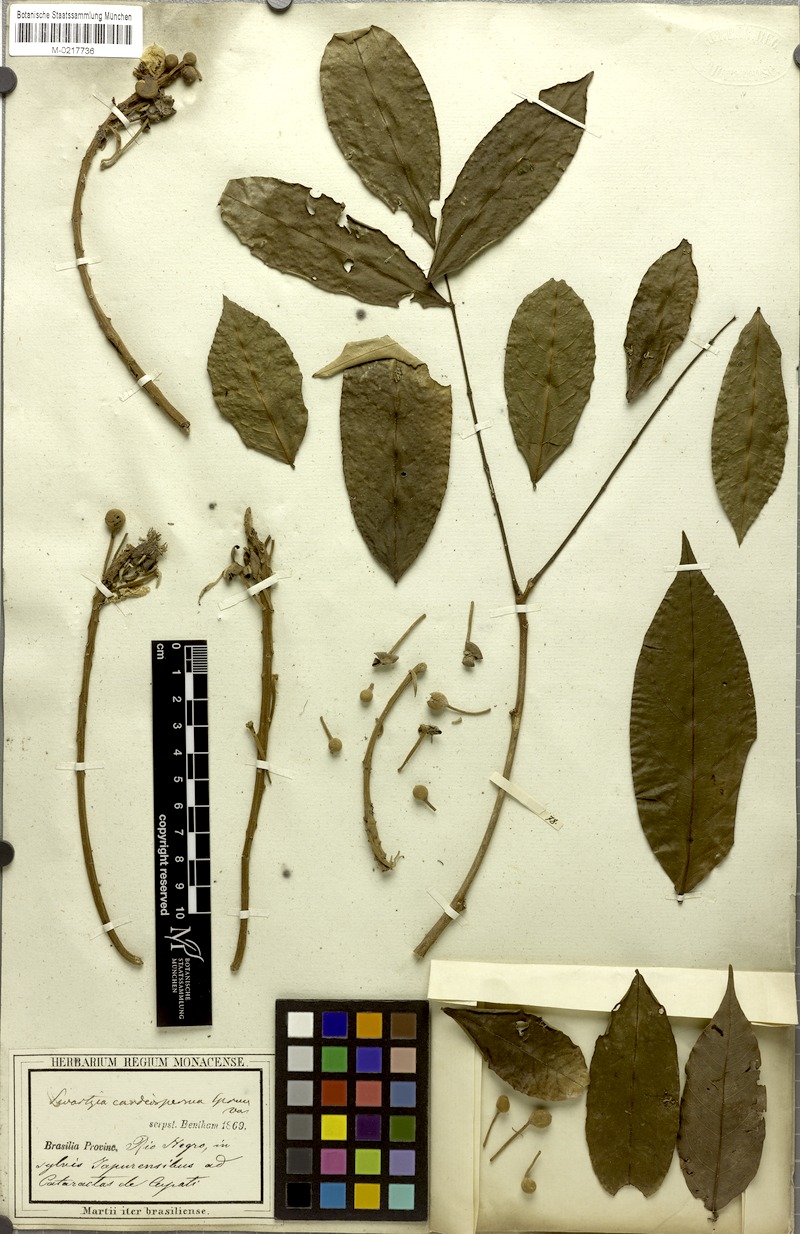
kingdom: Plantae
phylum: Tracheophyta
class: Magnoliopsida
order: Fabales
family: Fabaceae
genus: Swartzia
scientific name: Swartzia cardiosperma
